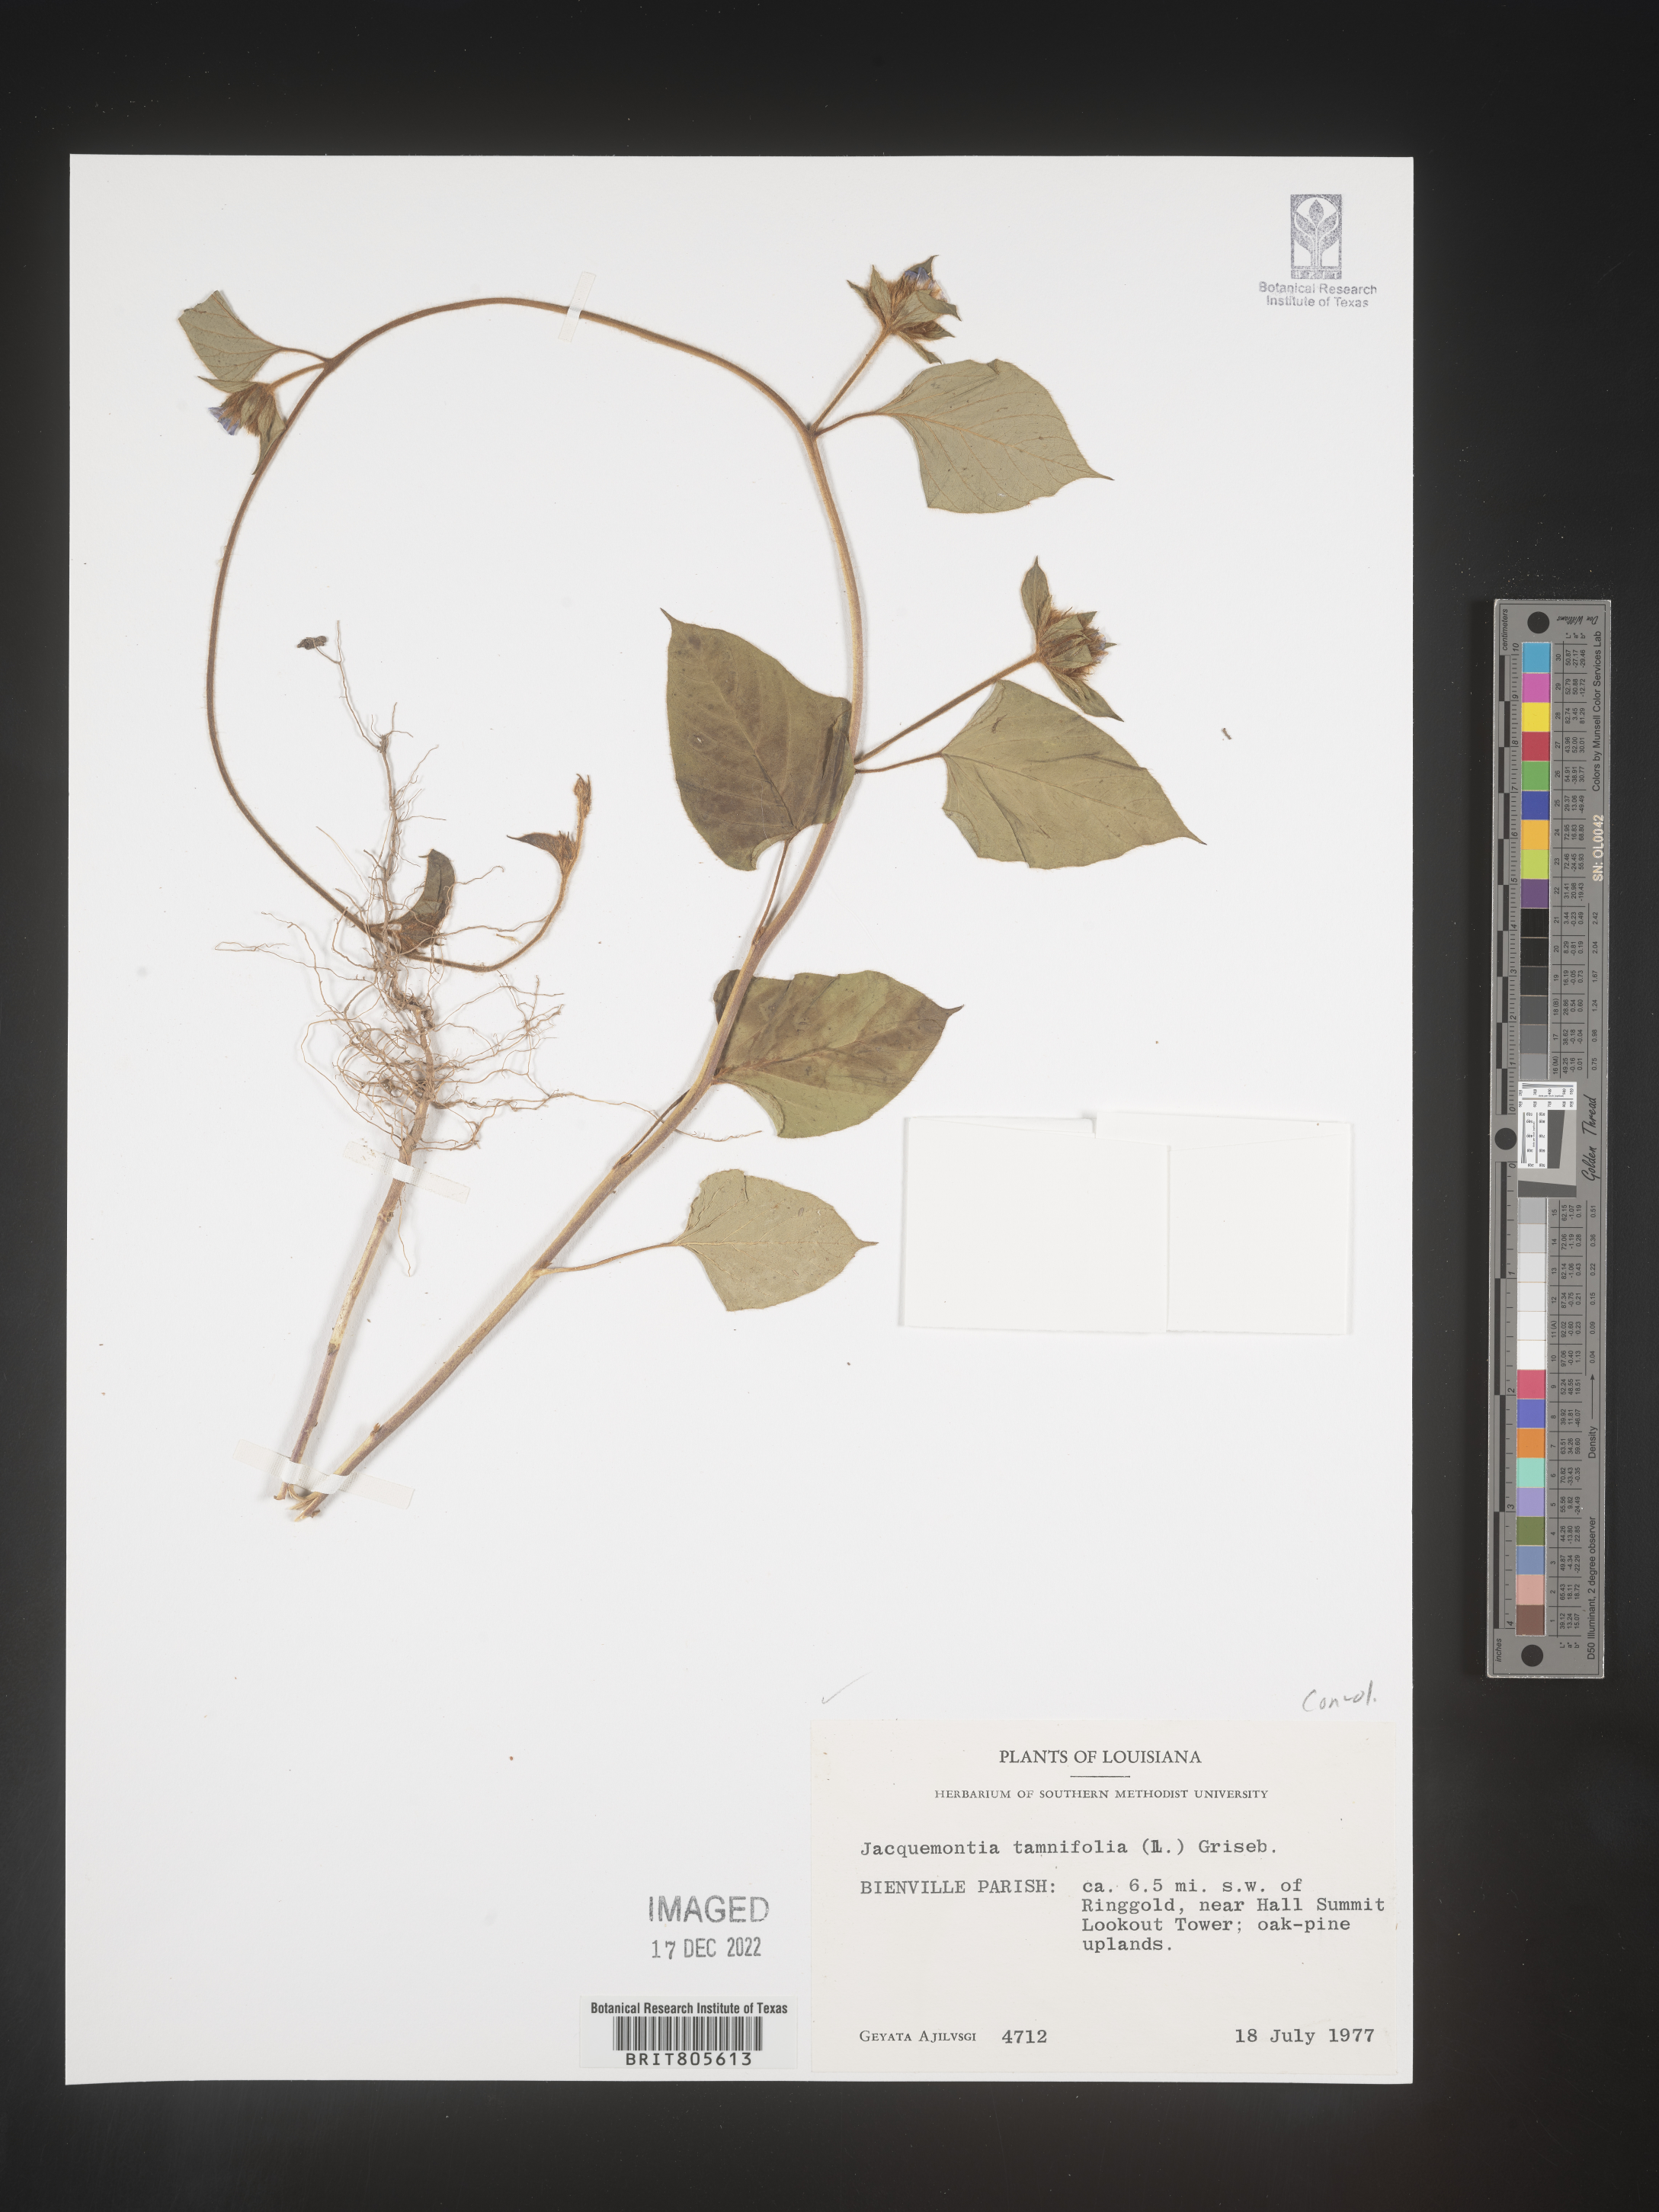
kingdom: Plantae
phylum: Tracheophyta
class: Magnoliopsida
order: Solanales
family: Convolvulaceae
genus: Jacquemontia
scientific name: Jacquemontia tamnifolia
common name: Hairy clustervine
